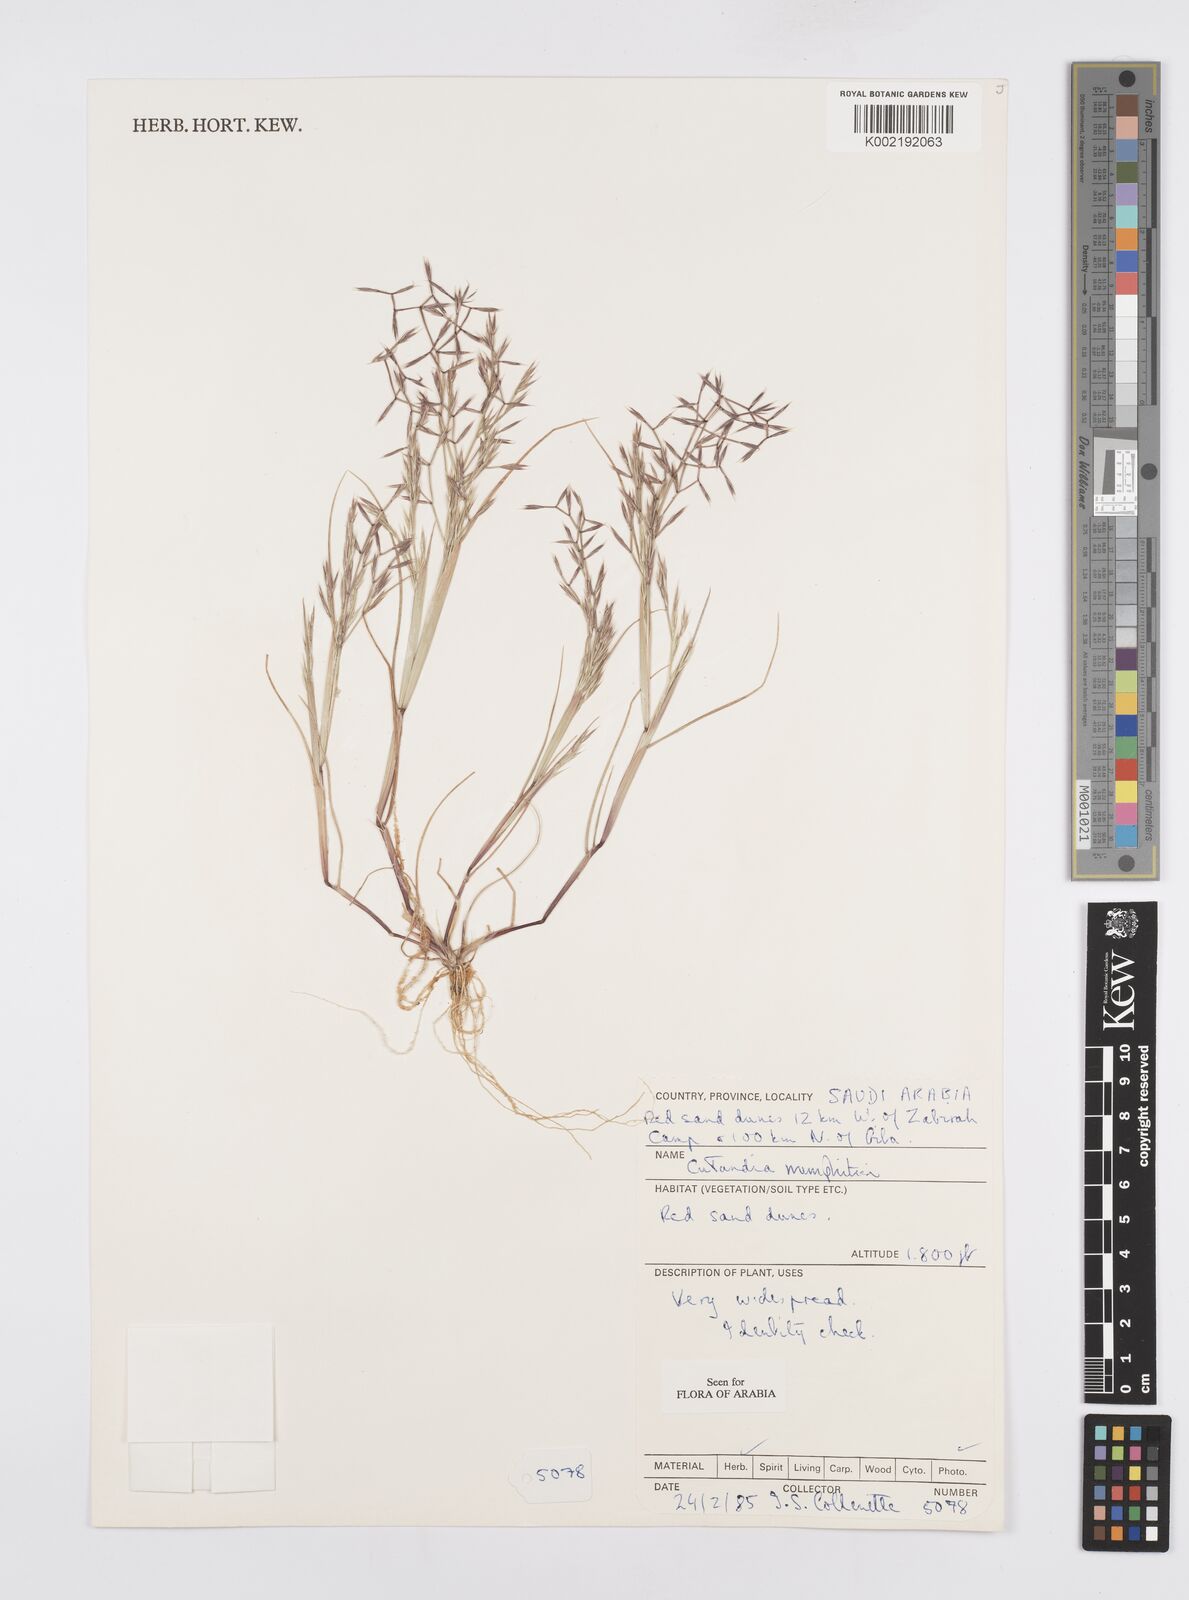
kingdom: Plantae
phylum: Tracheophyta
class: Liliopsida
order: Poales
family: Poaceae
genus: Cutandia
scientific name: Cutandia memphitica
